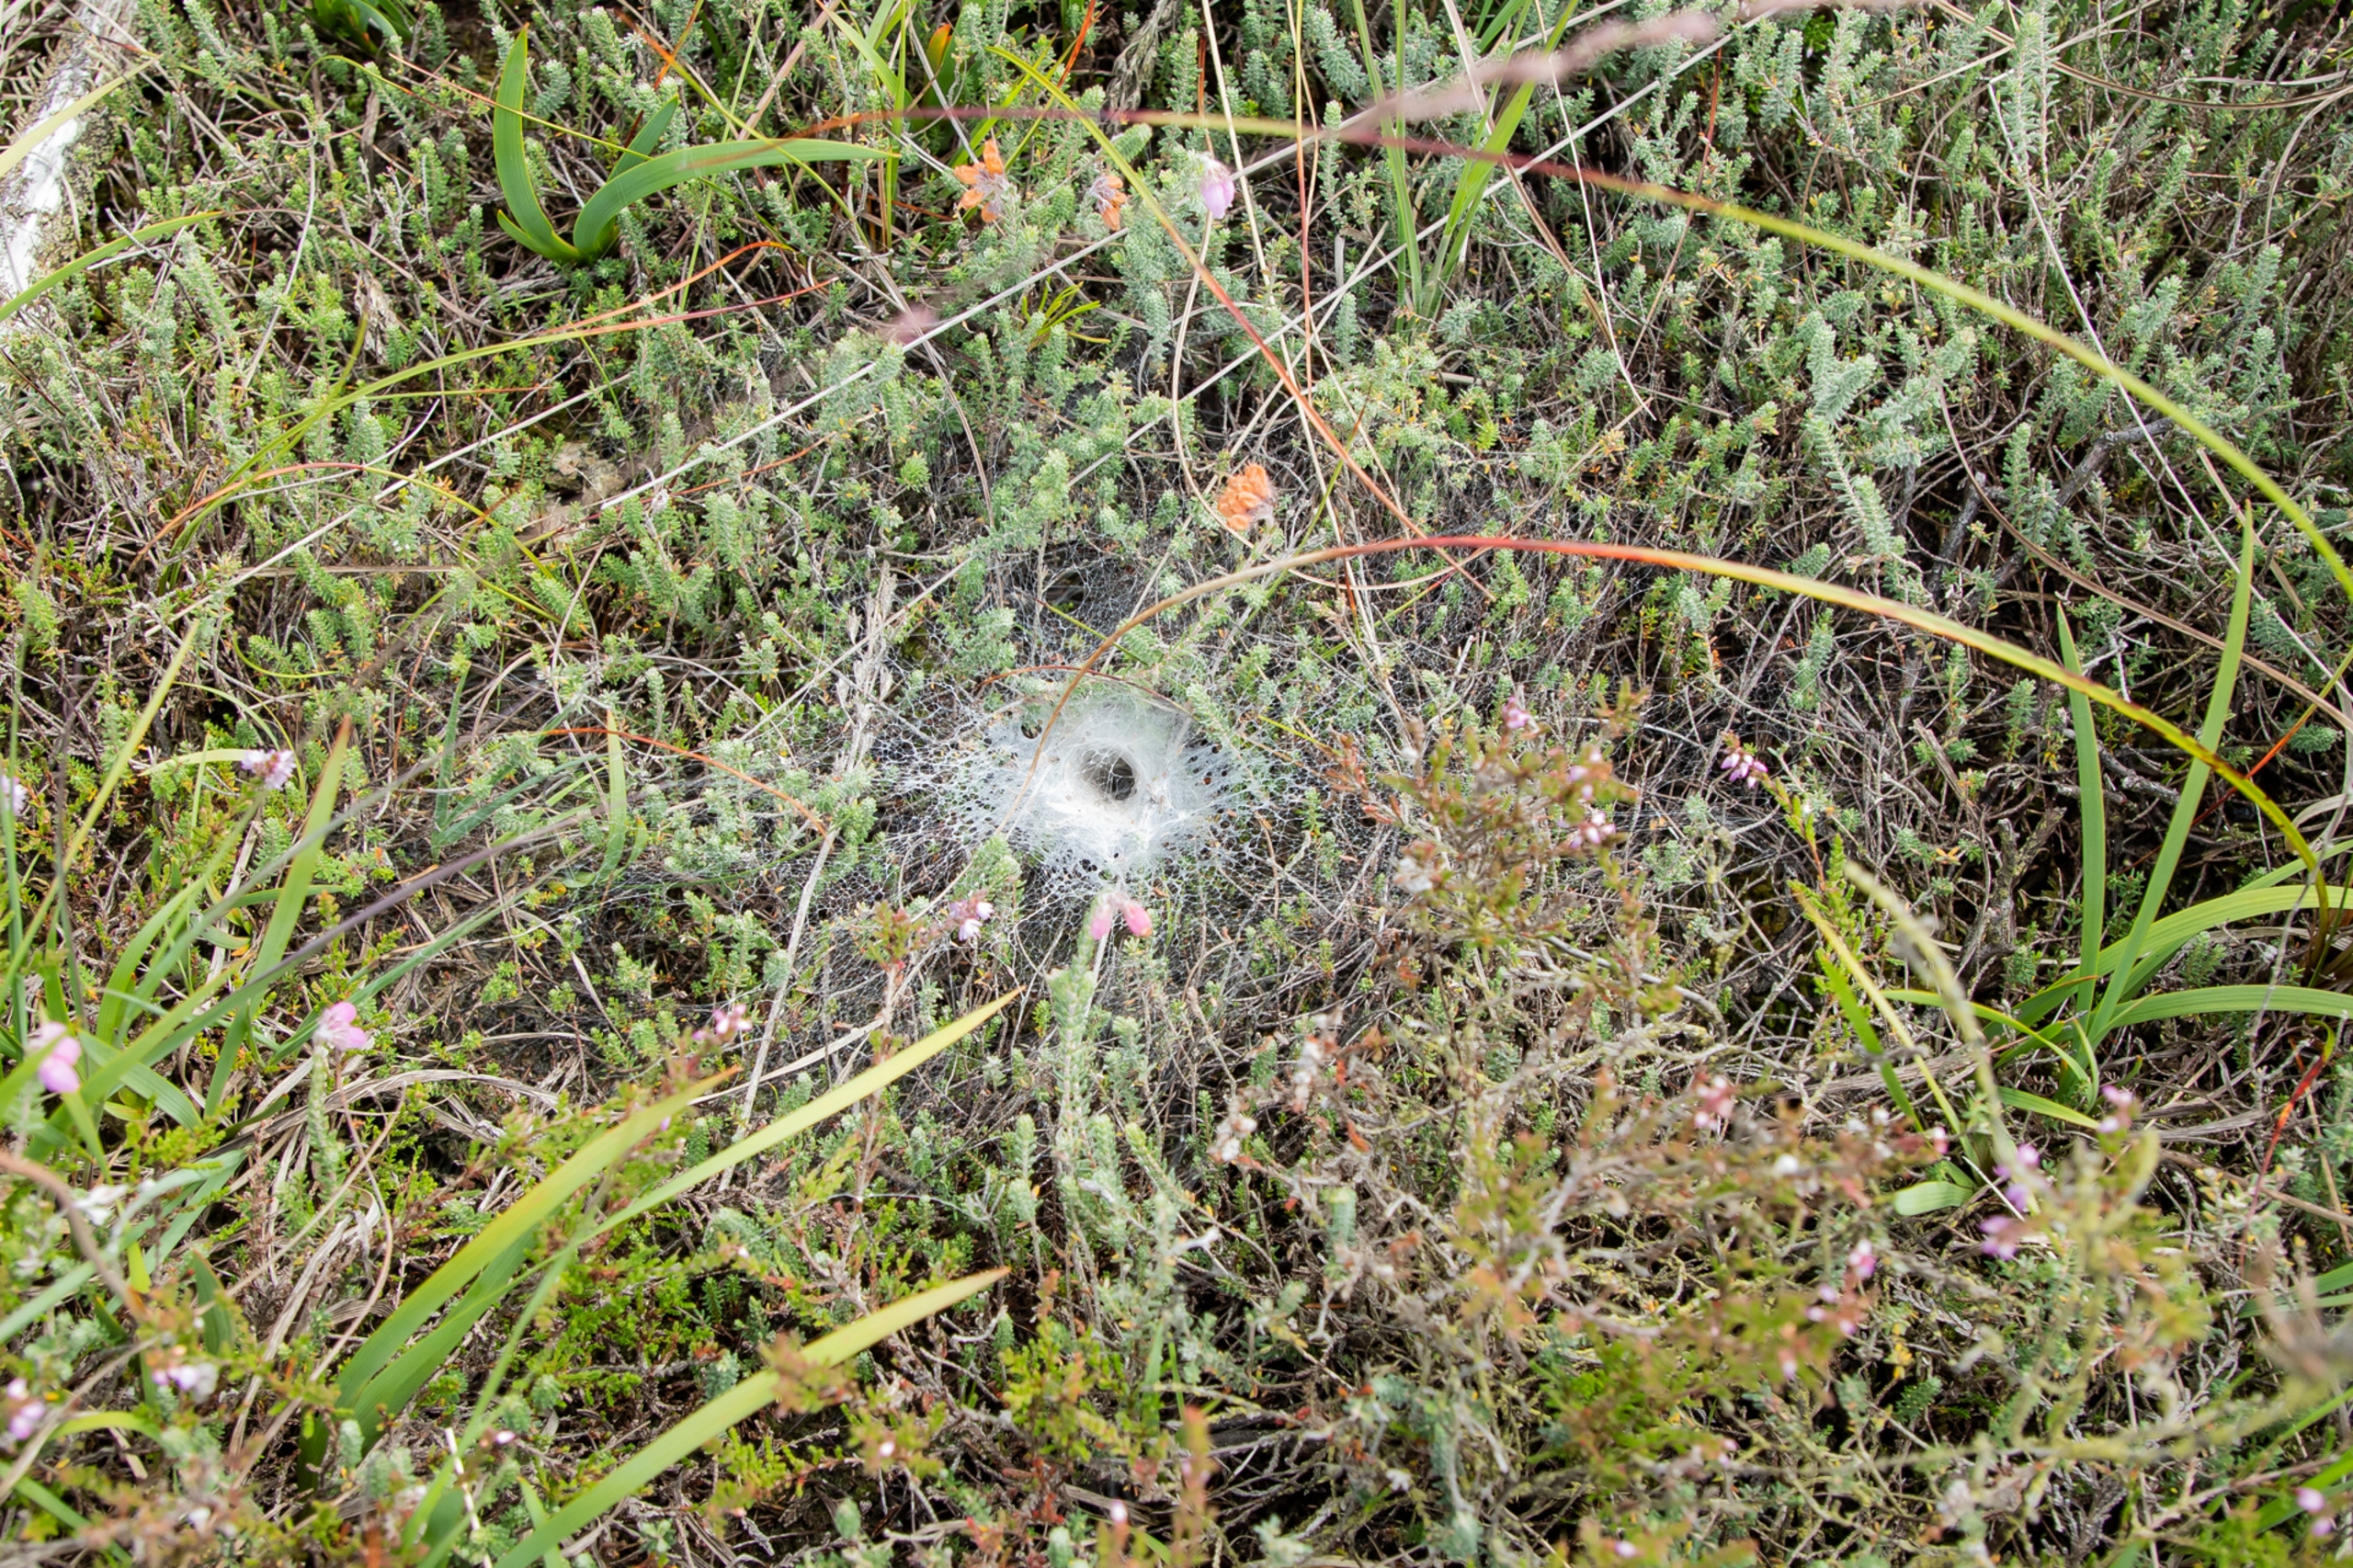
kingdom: Animalia
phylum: Arthropoda
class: Arachnida
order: Araneae
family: Agelenidae
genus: Agelena
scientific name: Agelena labyrinthica
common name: Labyrintedderkop
